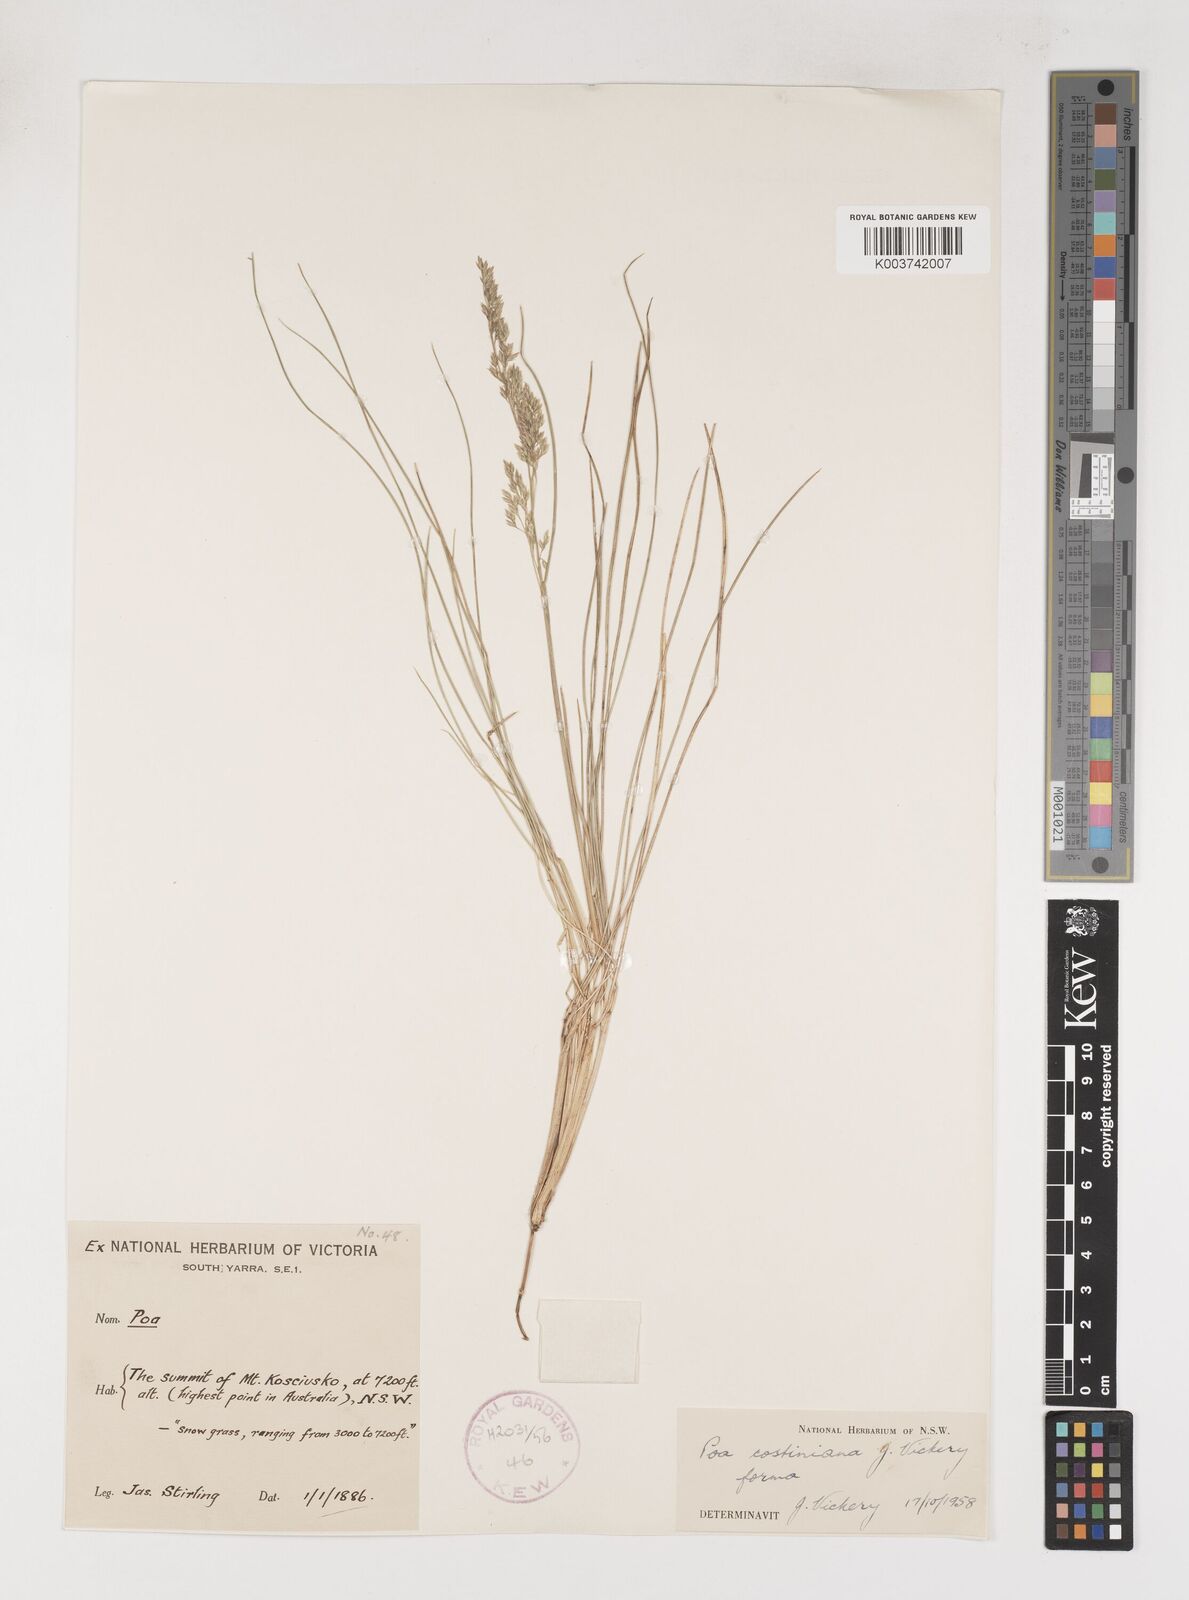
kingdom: Plantae
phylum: Tracheophyta
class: Liliopsida
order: Poales
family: Poaceae
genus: Poa
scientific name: Poa costiniana
